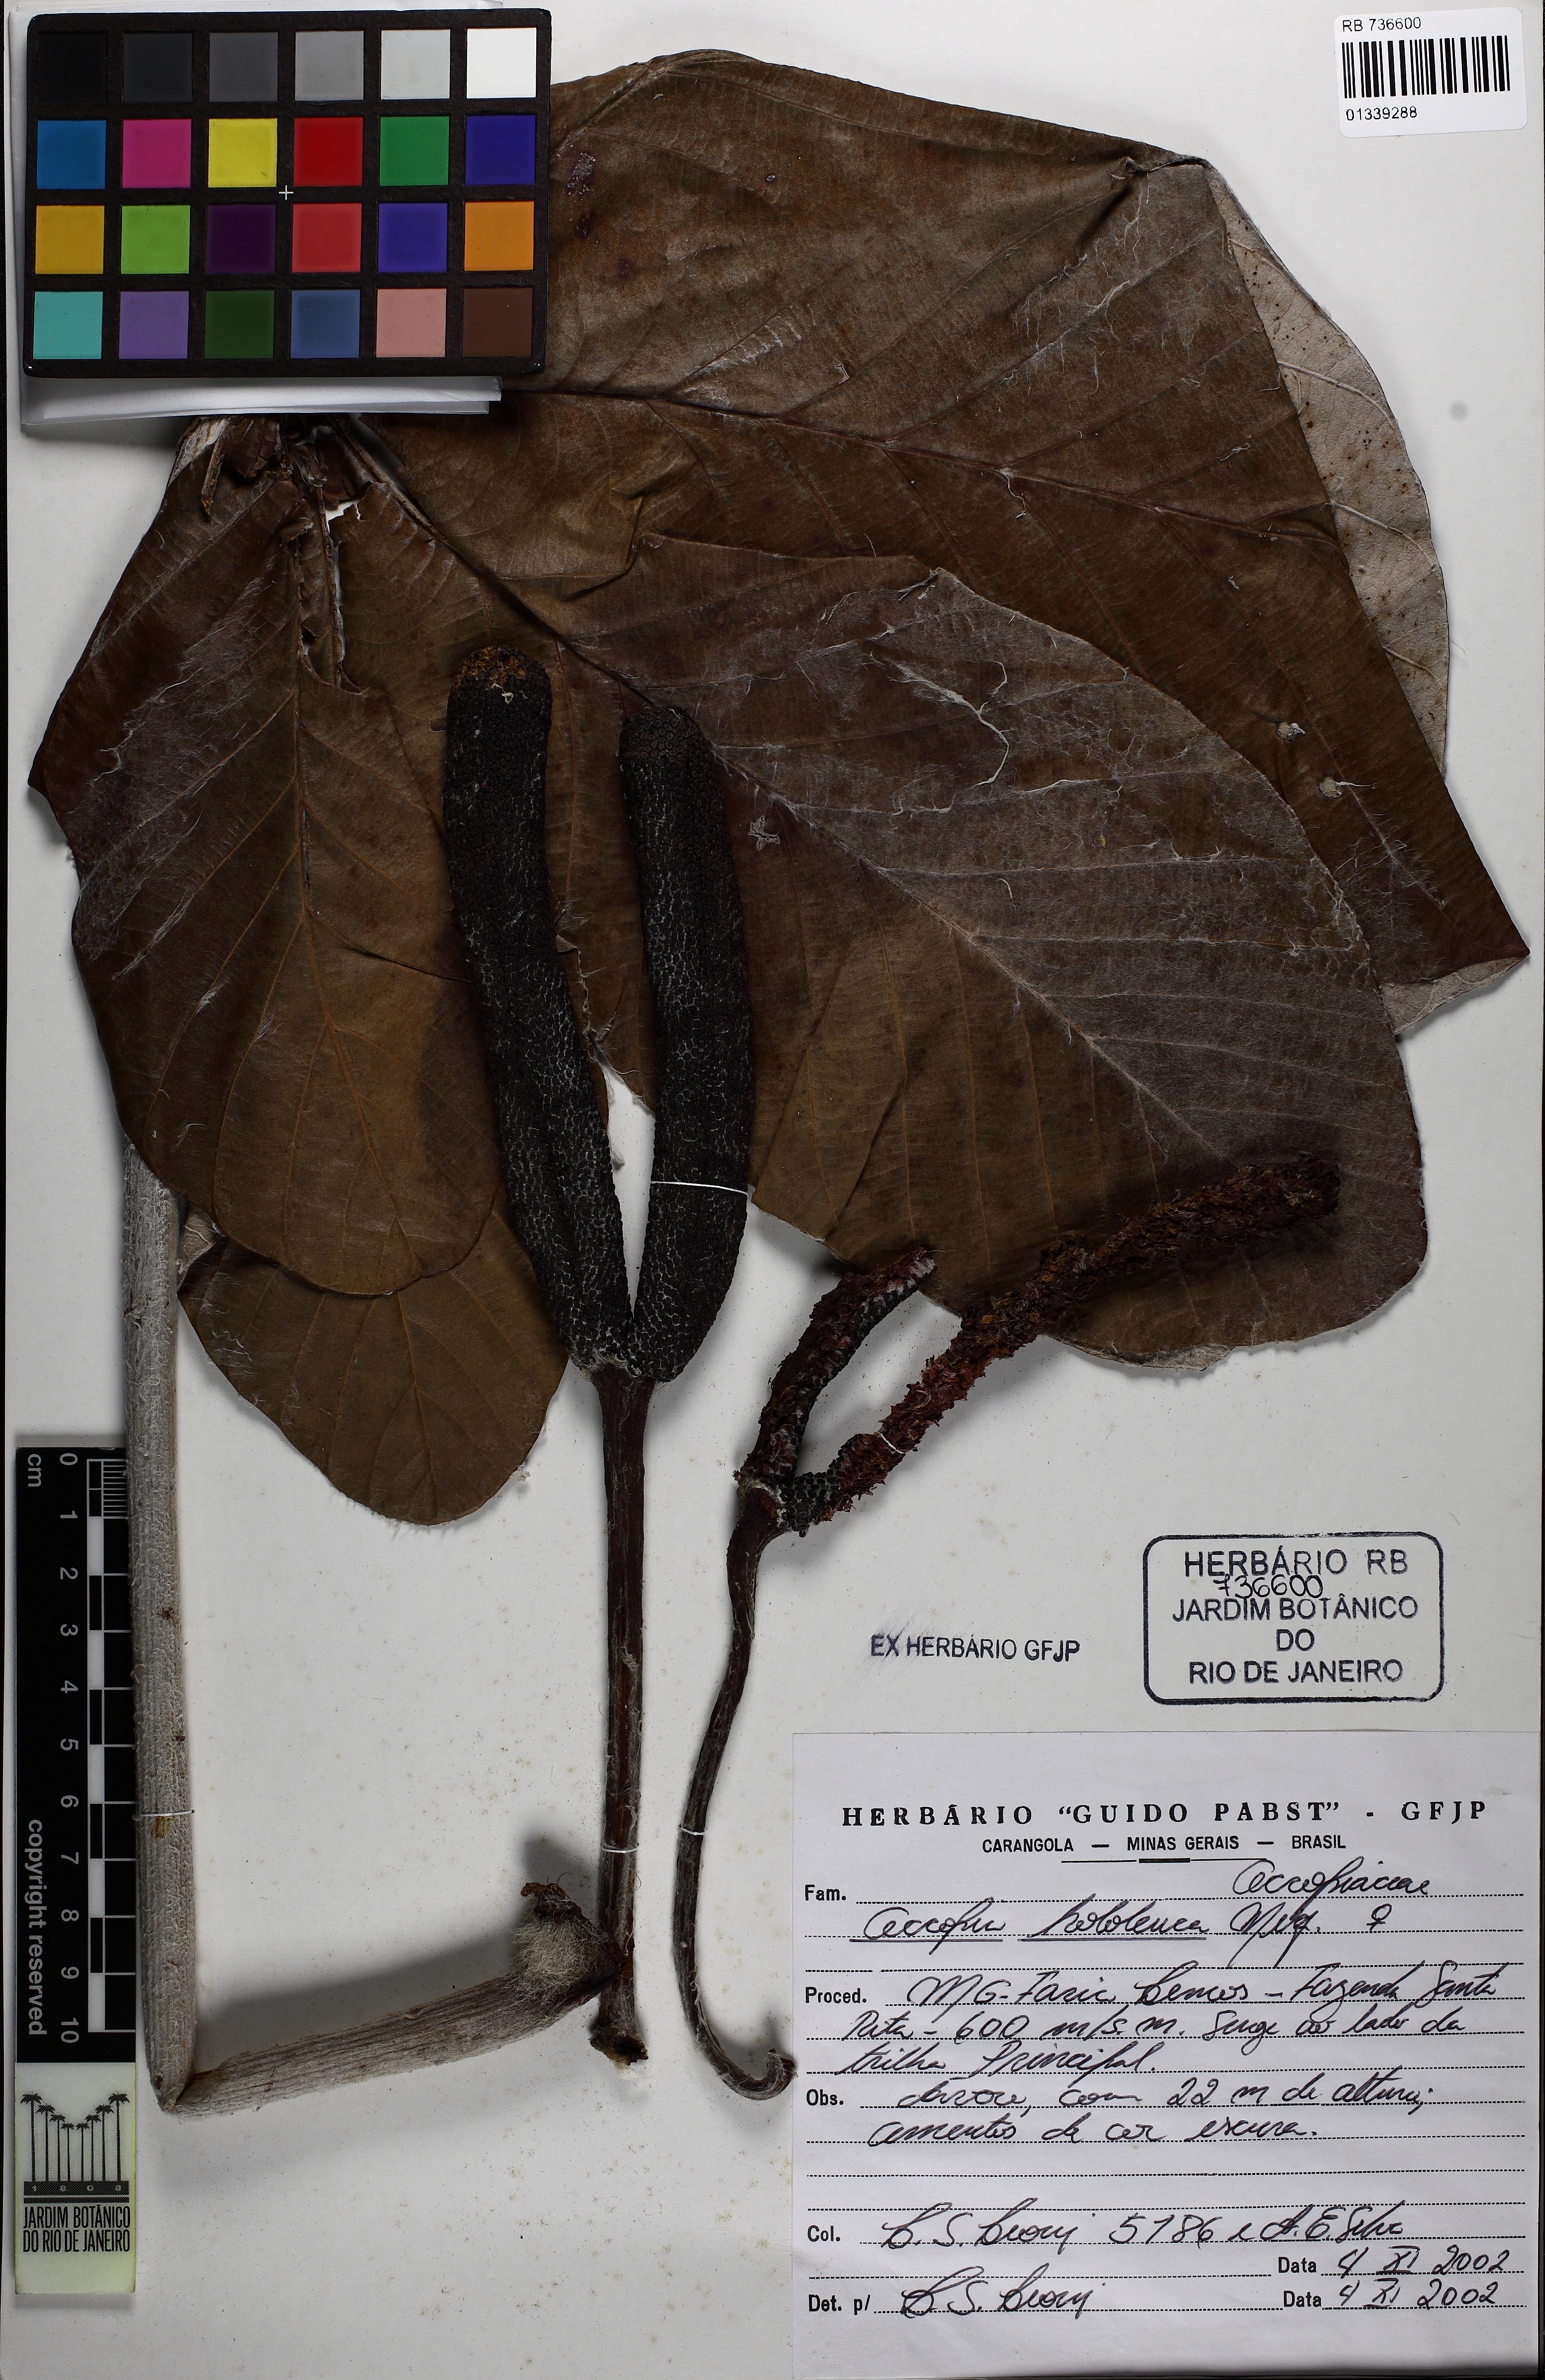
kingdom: Plantae
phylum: Tracheophyta
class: Magnoliopsida
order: Rosales
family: Urticaceae
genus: Cecropia
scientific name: Cecropia hololeuca
